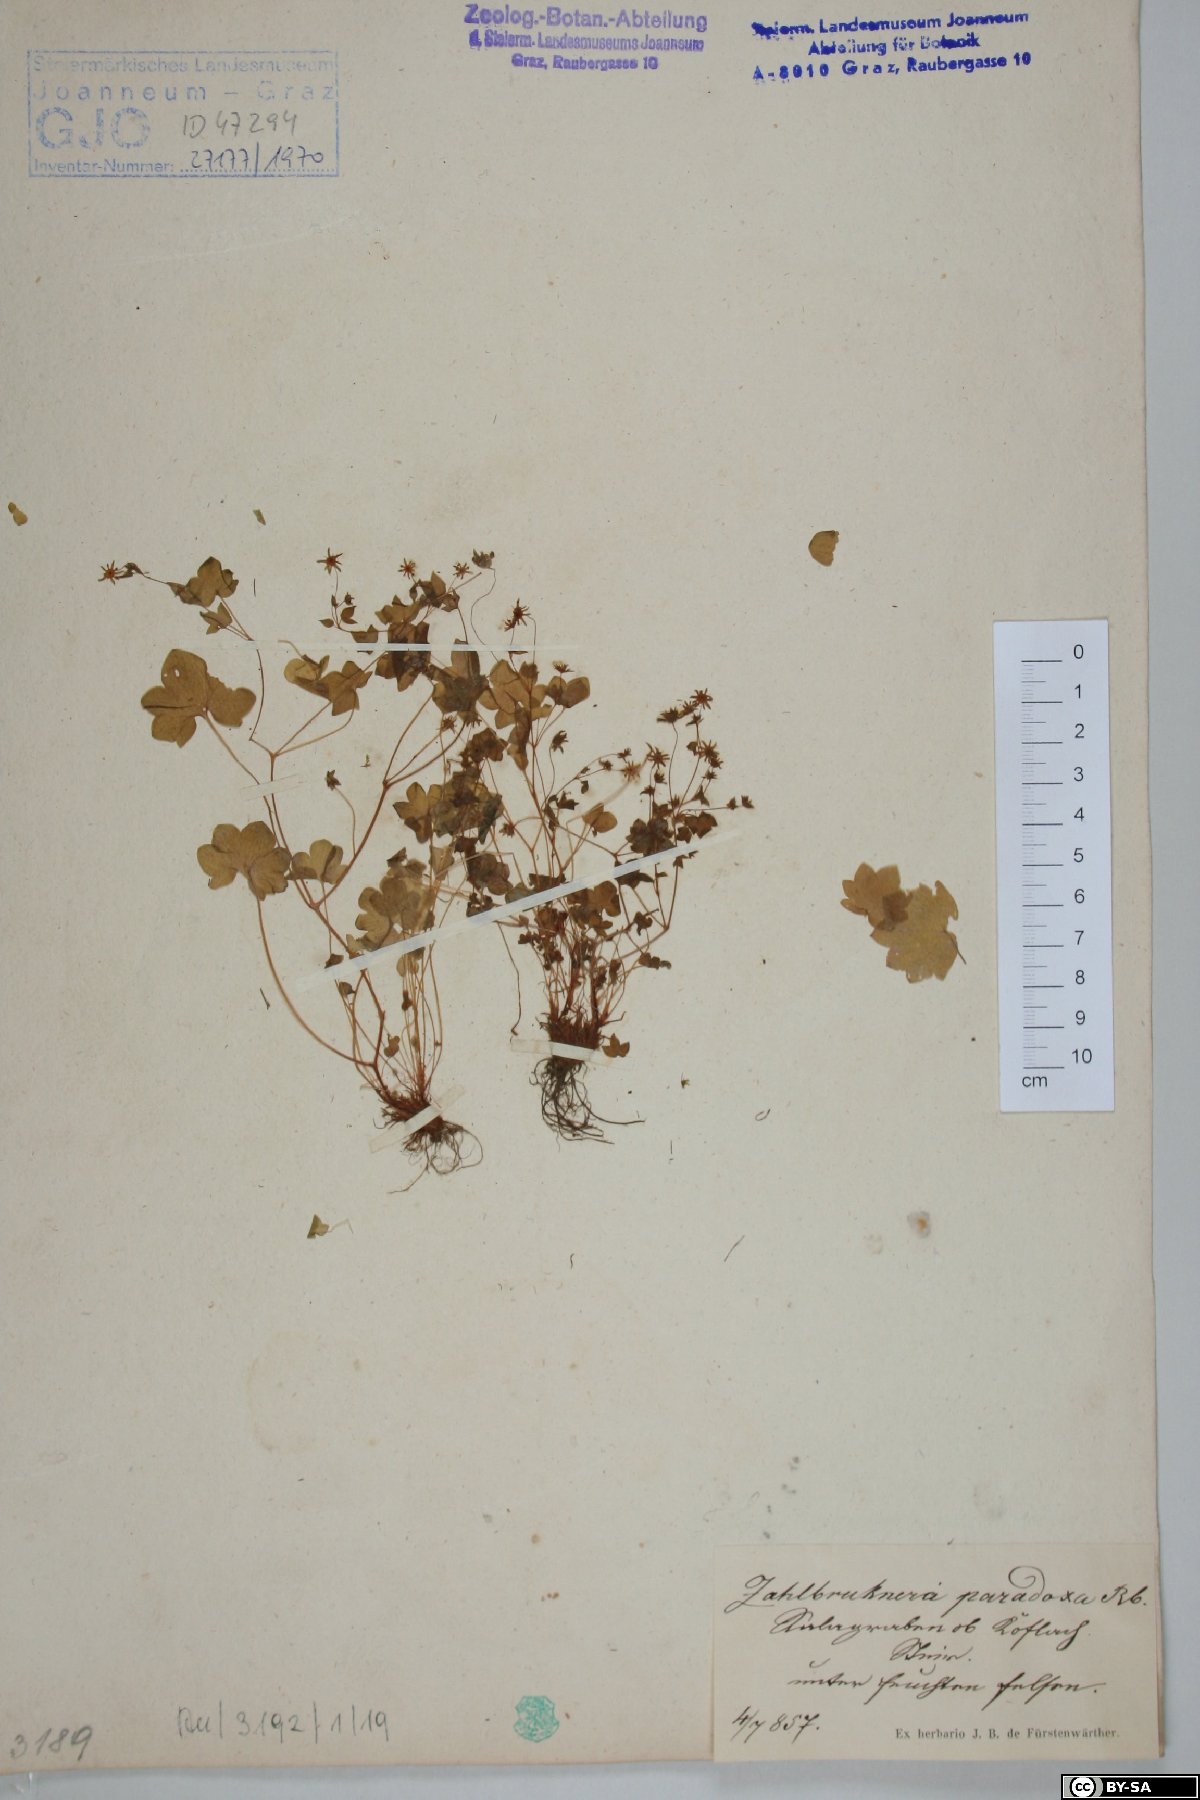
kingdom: Plantae
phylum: Tracheophyta
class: Magnoliopsida
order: Saxifragales
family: Saxifragaceae
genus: Saxifraga
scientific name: Saxifraga paradoxa
